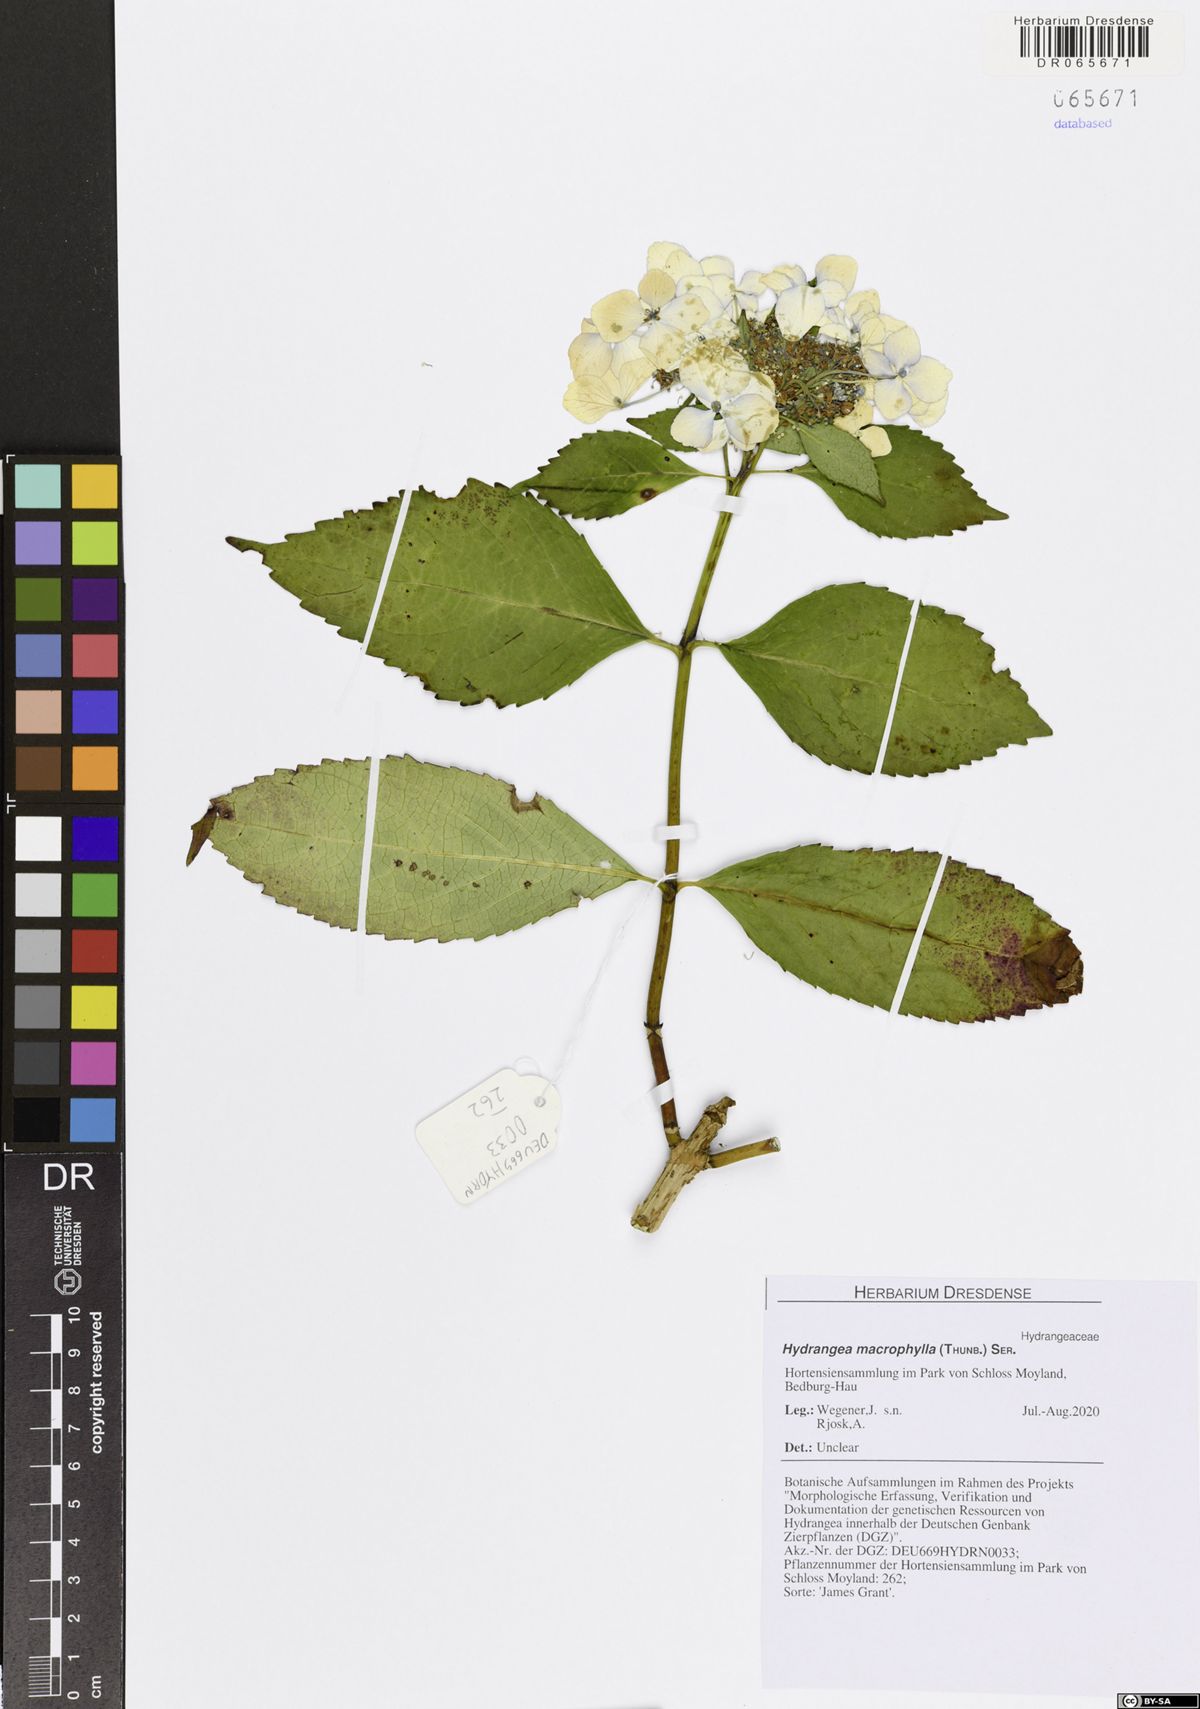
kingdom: Plantae
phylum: Tracheophyta
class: Magnoliopsida
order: Cornales
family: Hydrangeaceae
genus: Hydrangea
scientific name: Hydrangea macrophylla
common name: Hydrangea
